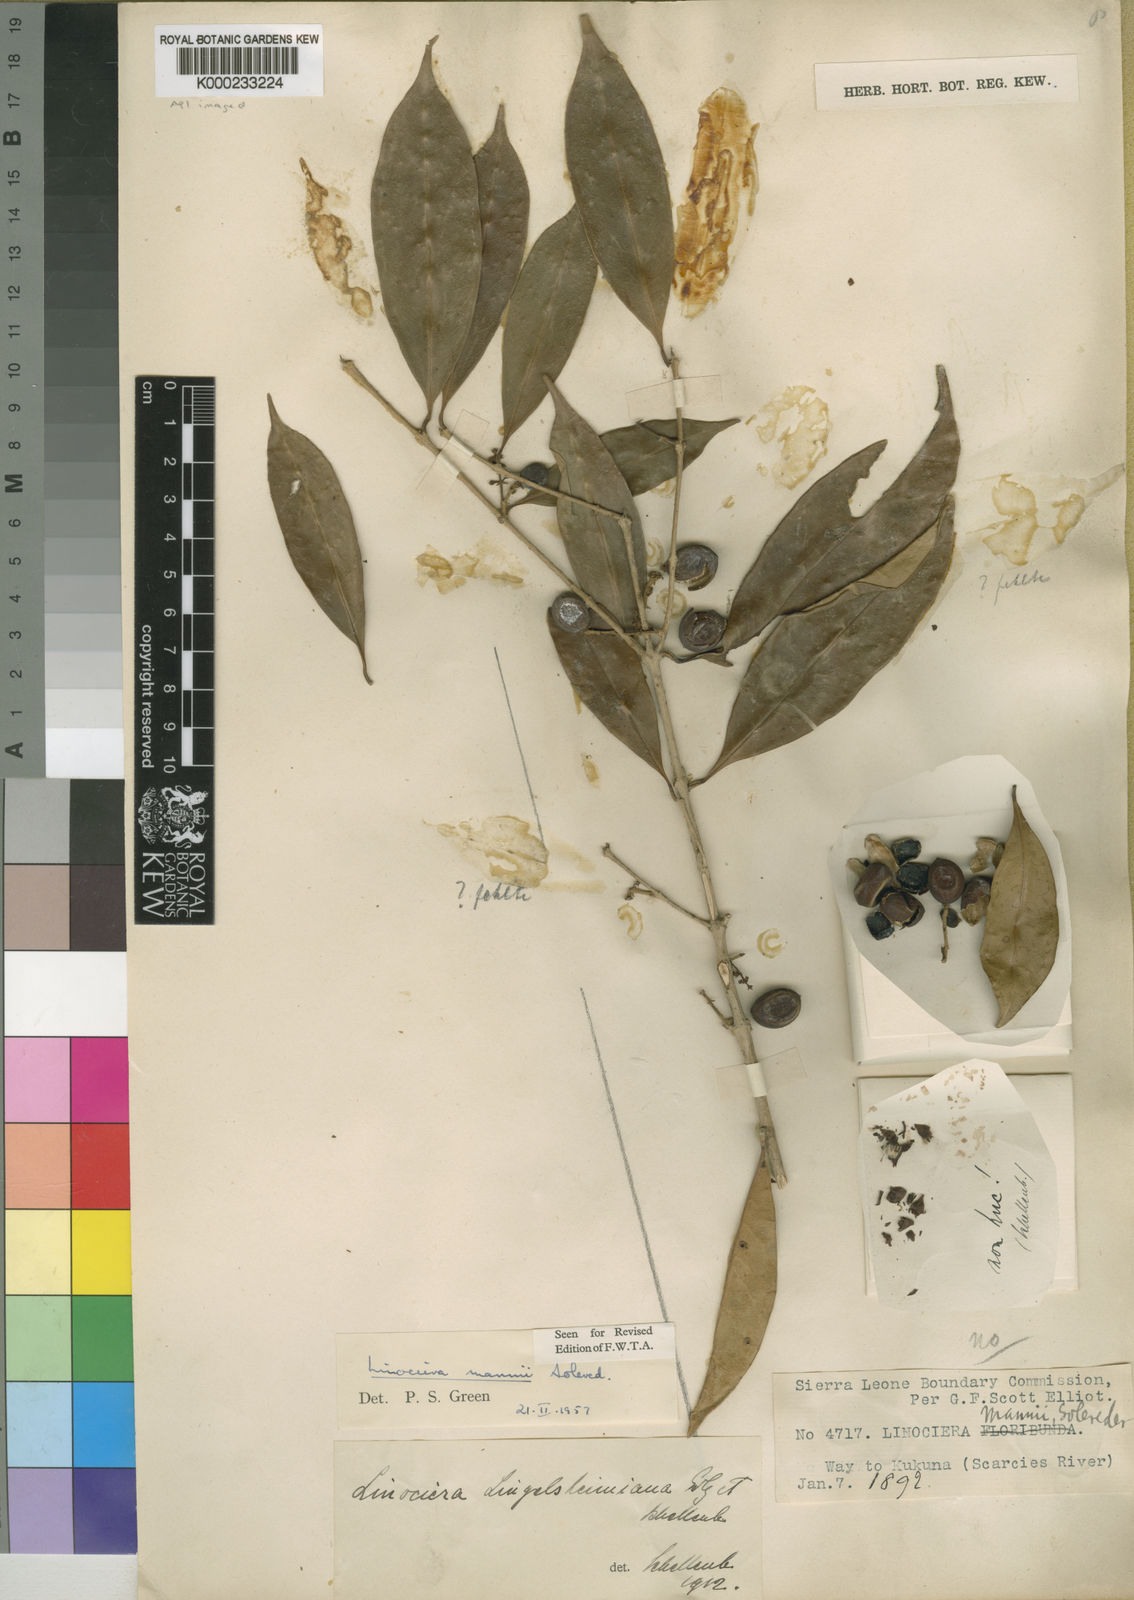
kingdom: Plantae
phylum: Tracheophyta
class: Magnoliopsida
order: Lamiales
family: Oleaceae
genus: Noronhia
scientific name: Noronhia nilotica
